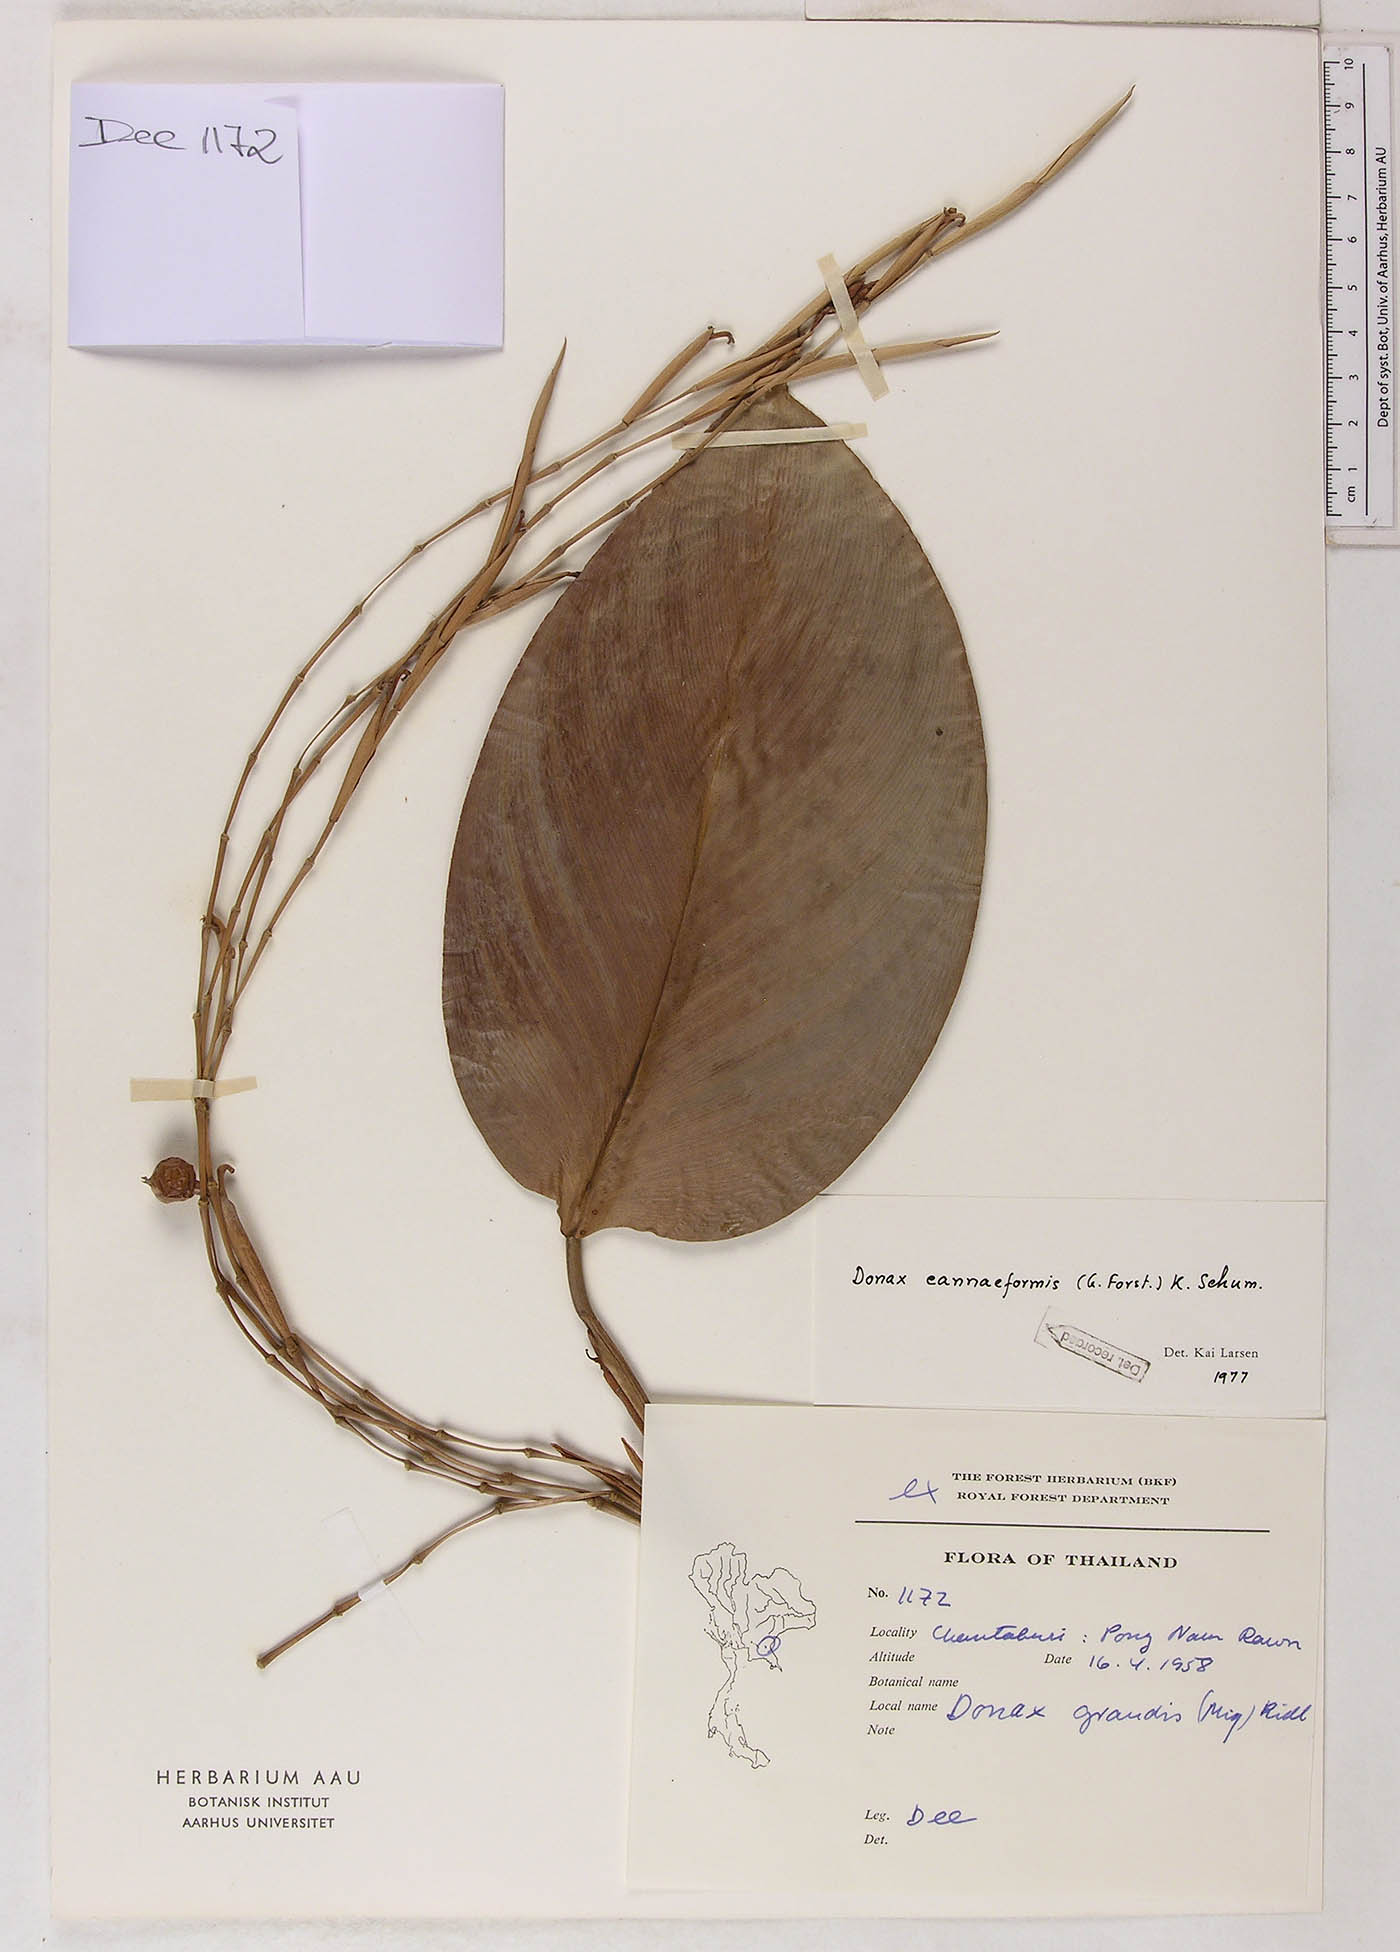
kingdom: Plantae
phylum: Tracheophyta
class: Liliopsida
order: Zingiberales
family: Marantaceae
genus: Donax
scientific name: Donax canniformis
